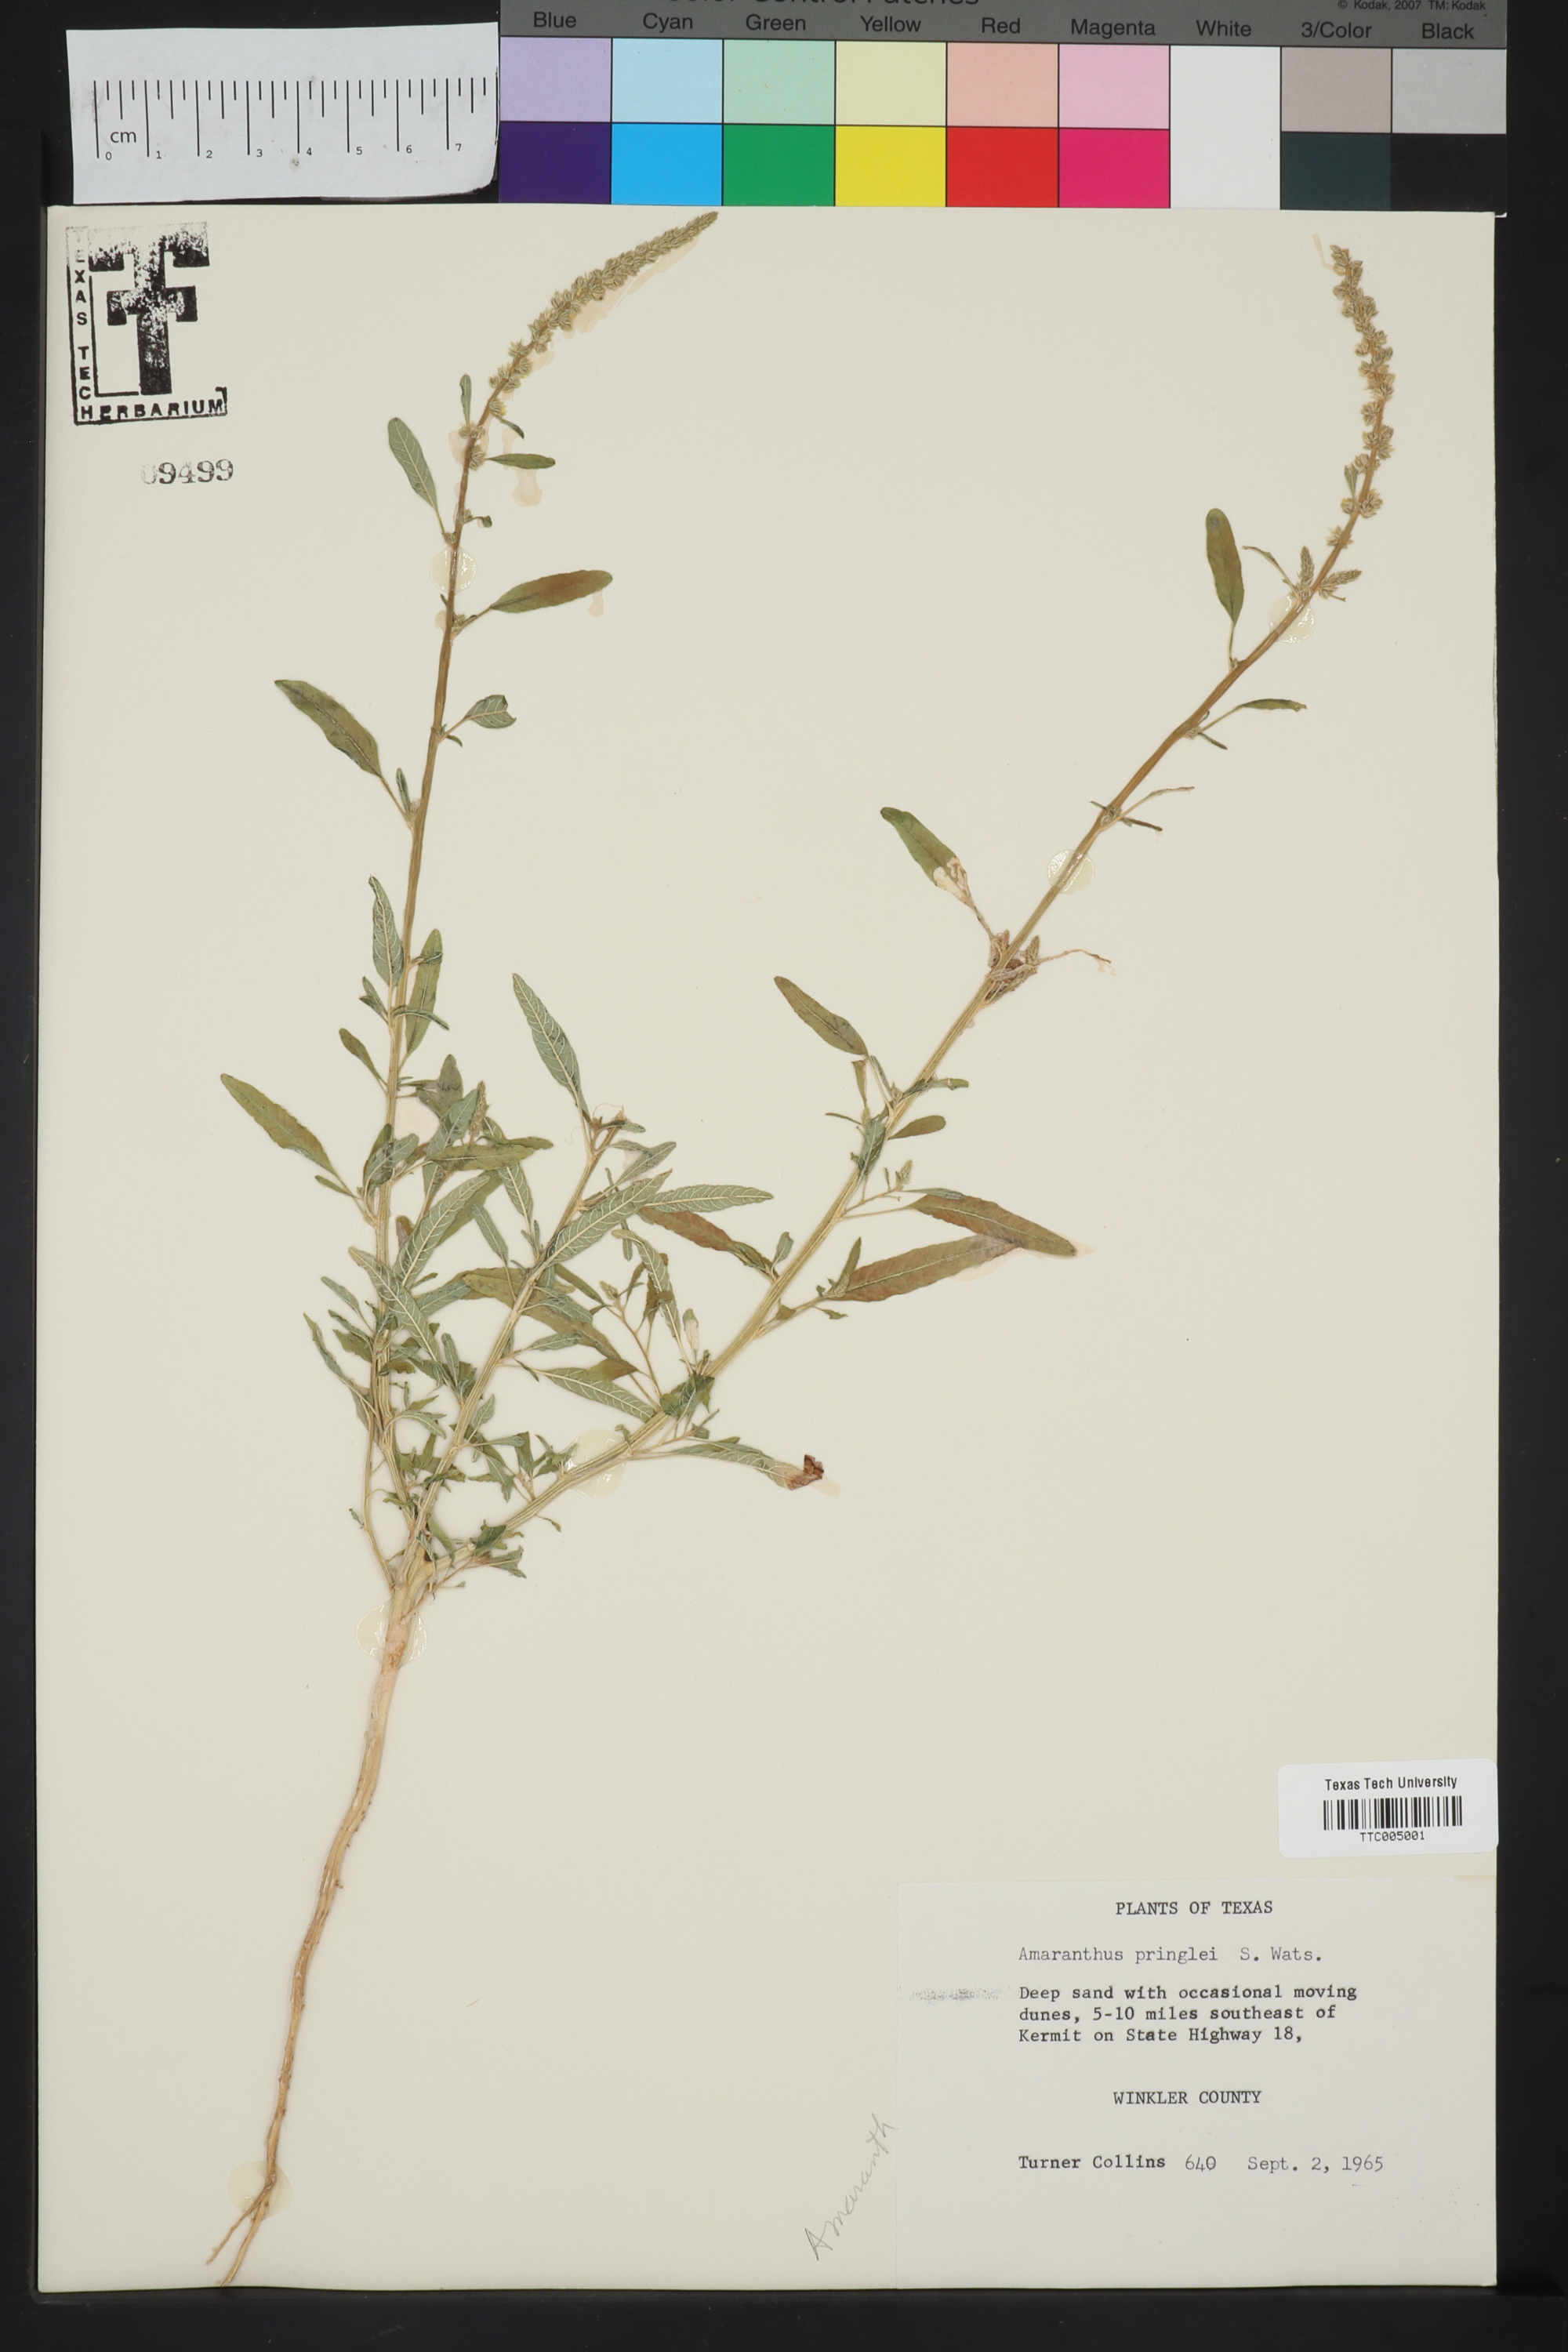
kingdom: Plantae
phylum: Tracheophyta
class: Magnoliopsida
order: Caryophyllales
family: Amaranthaceae
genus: Amaranthus
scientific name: Amaranthus torreyi
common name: Bigelow's amaranth
